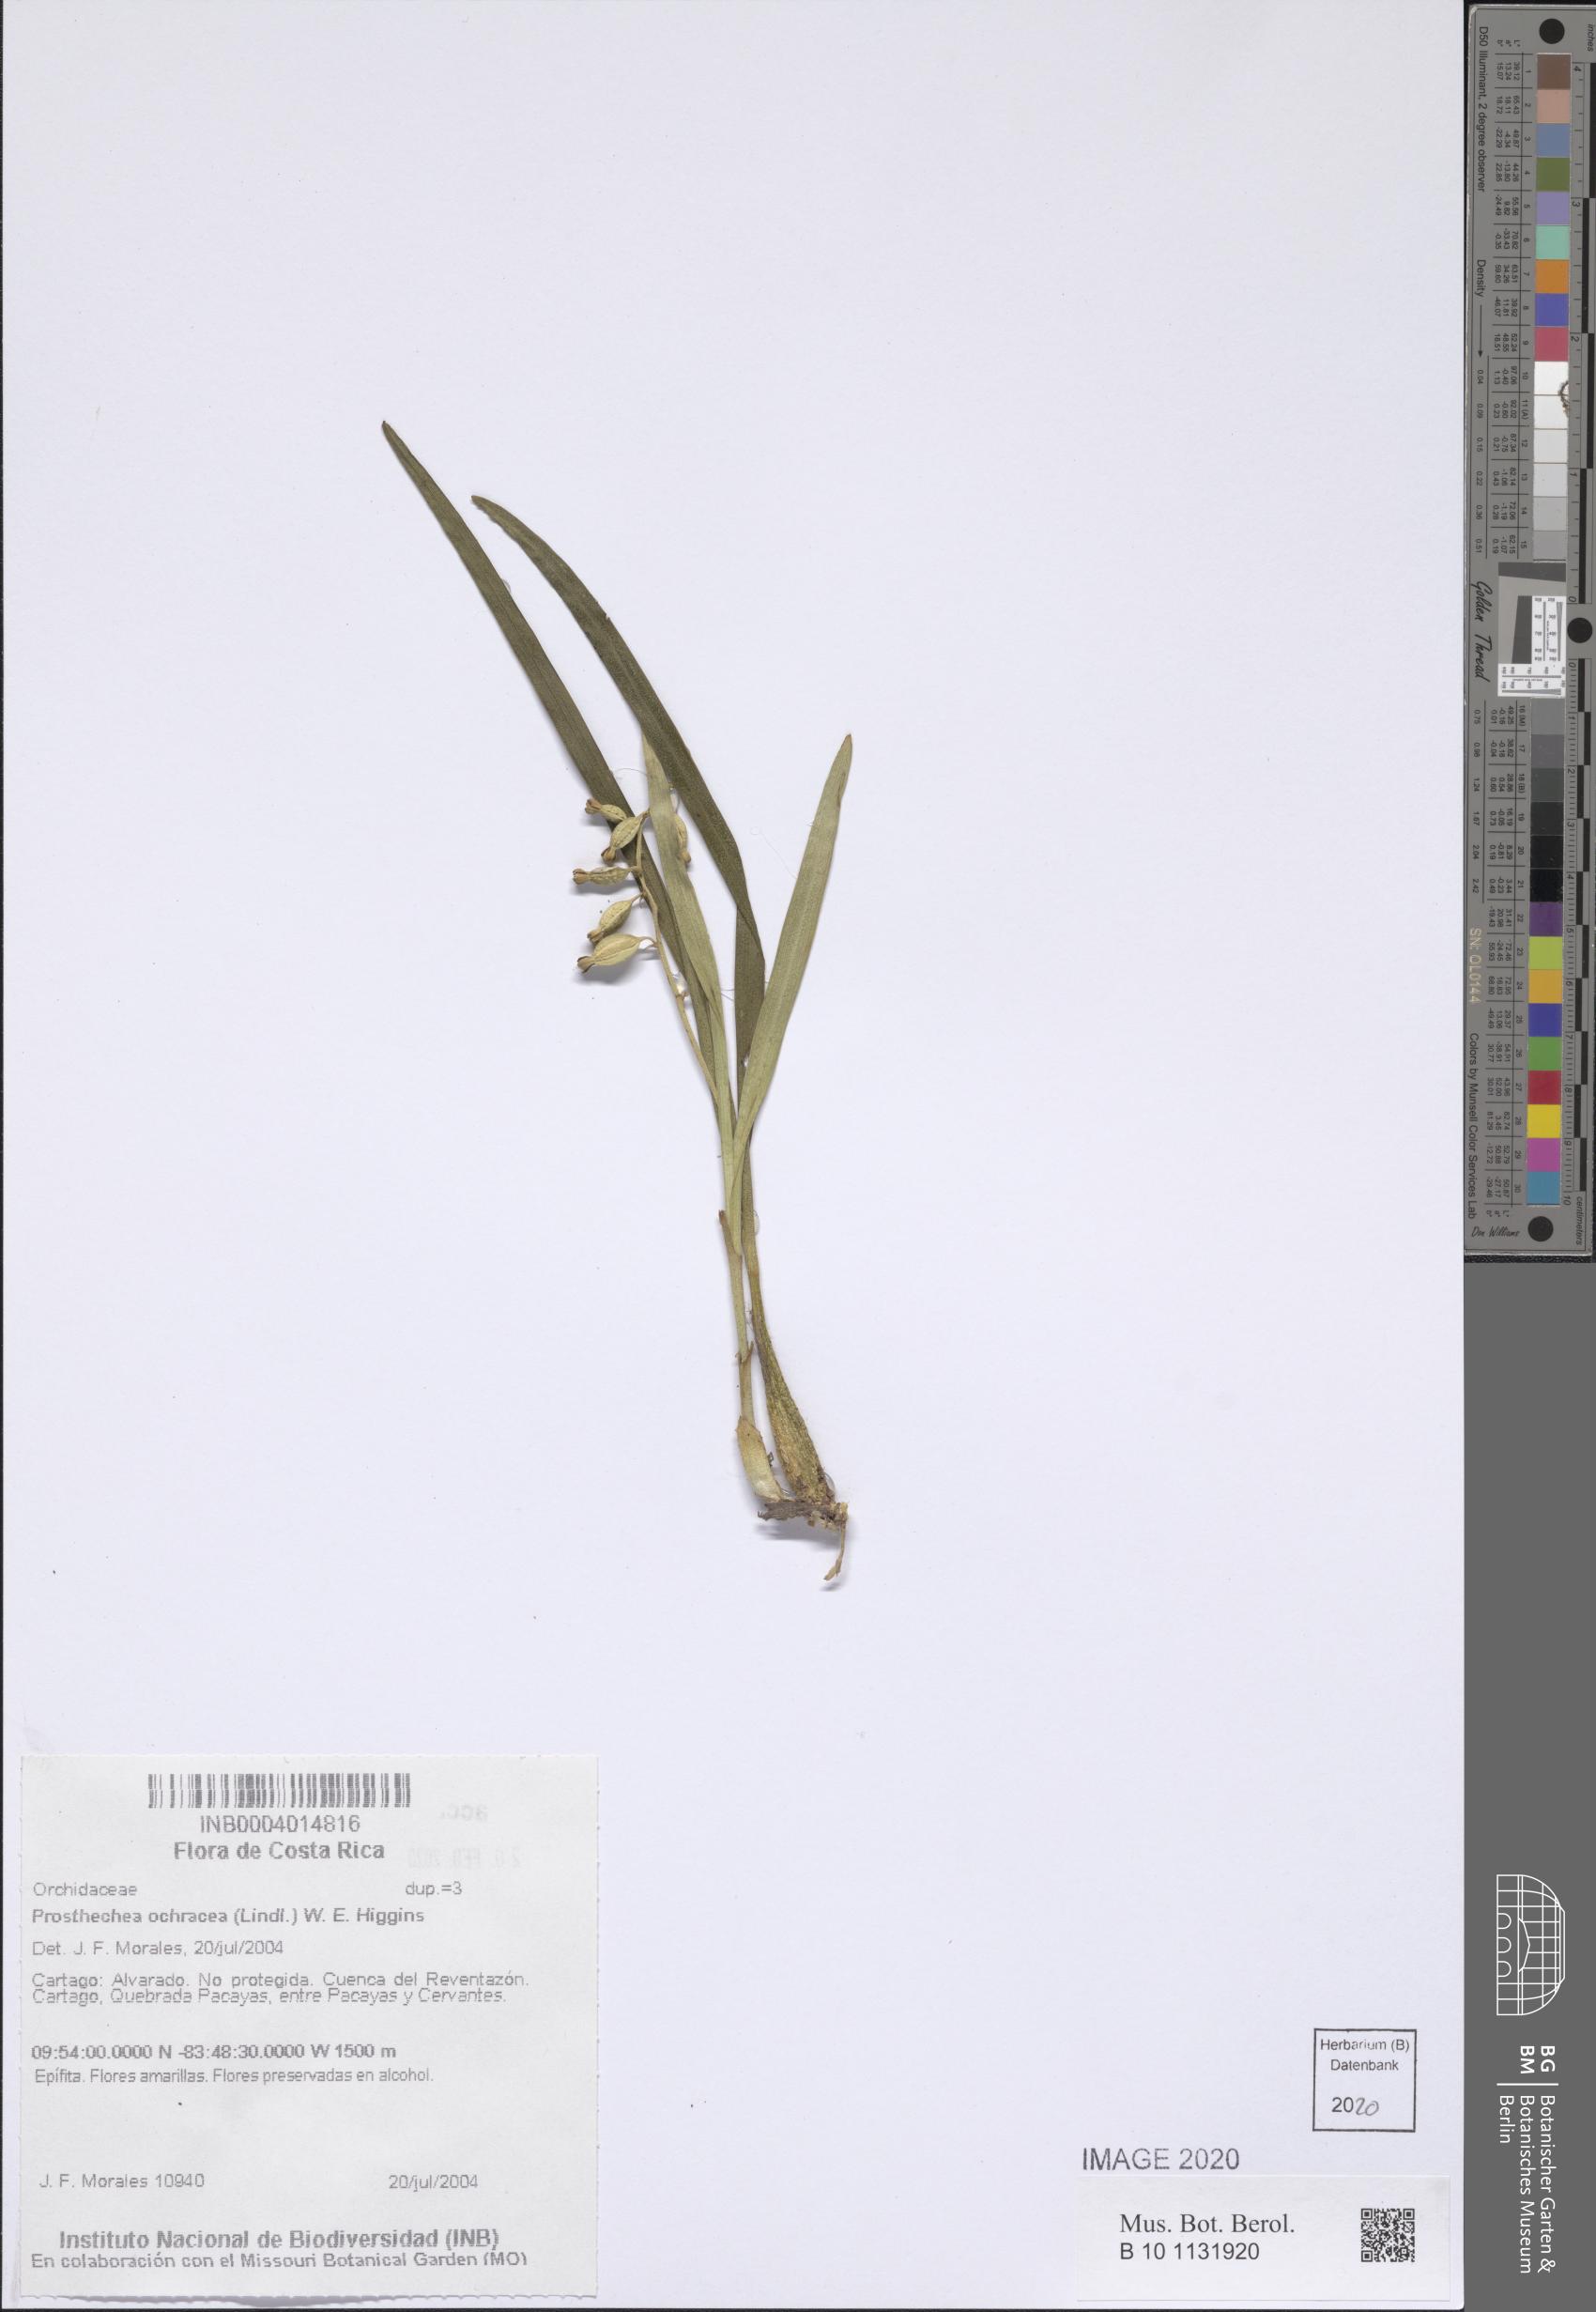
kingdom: Plantae
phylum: Tracheophyta
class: Liliopsida
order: Asparagales
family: Orchidaceae
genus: Prosthechea
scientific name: Prosthechea ochracea
